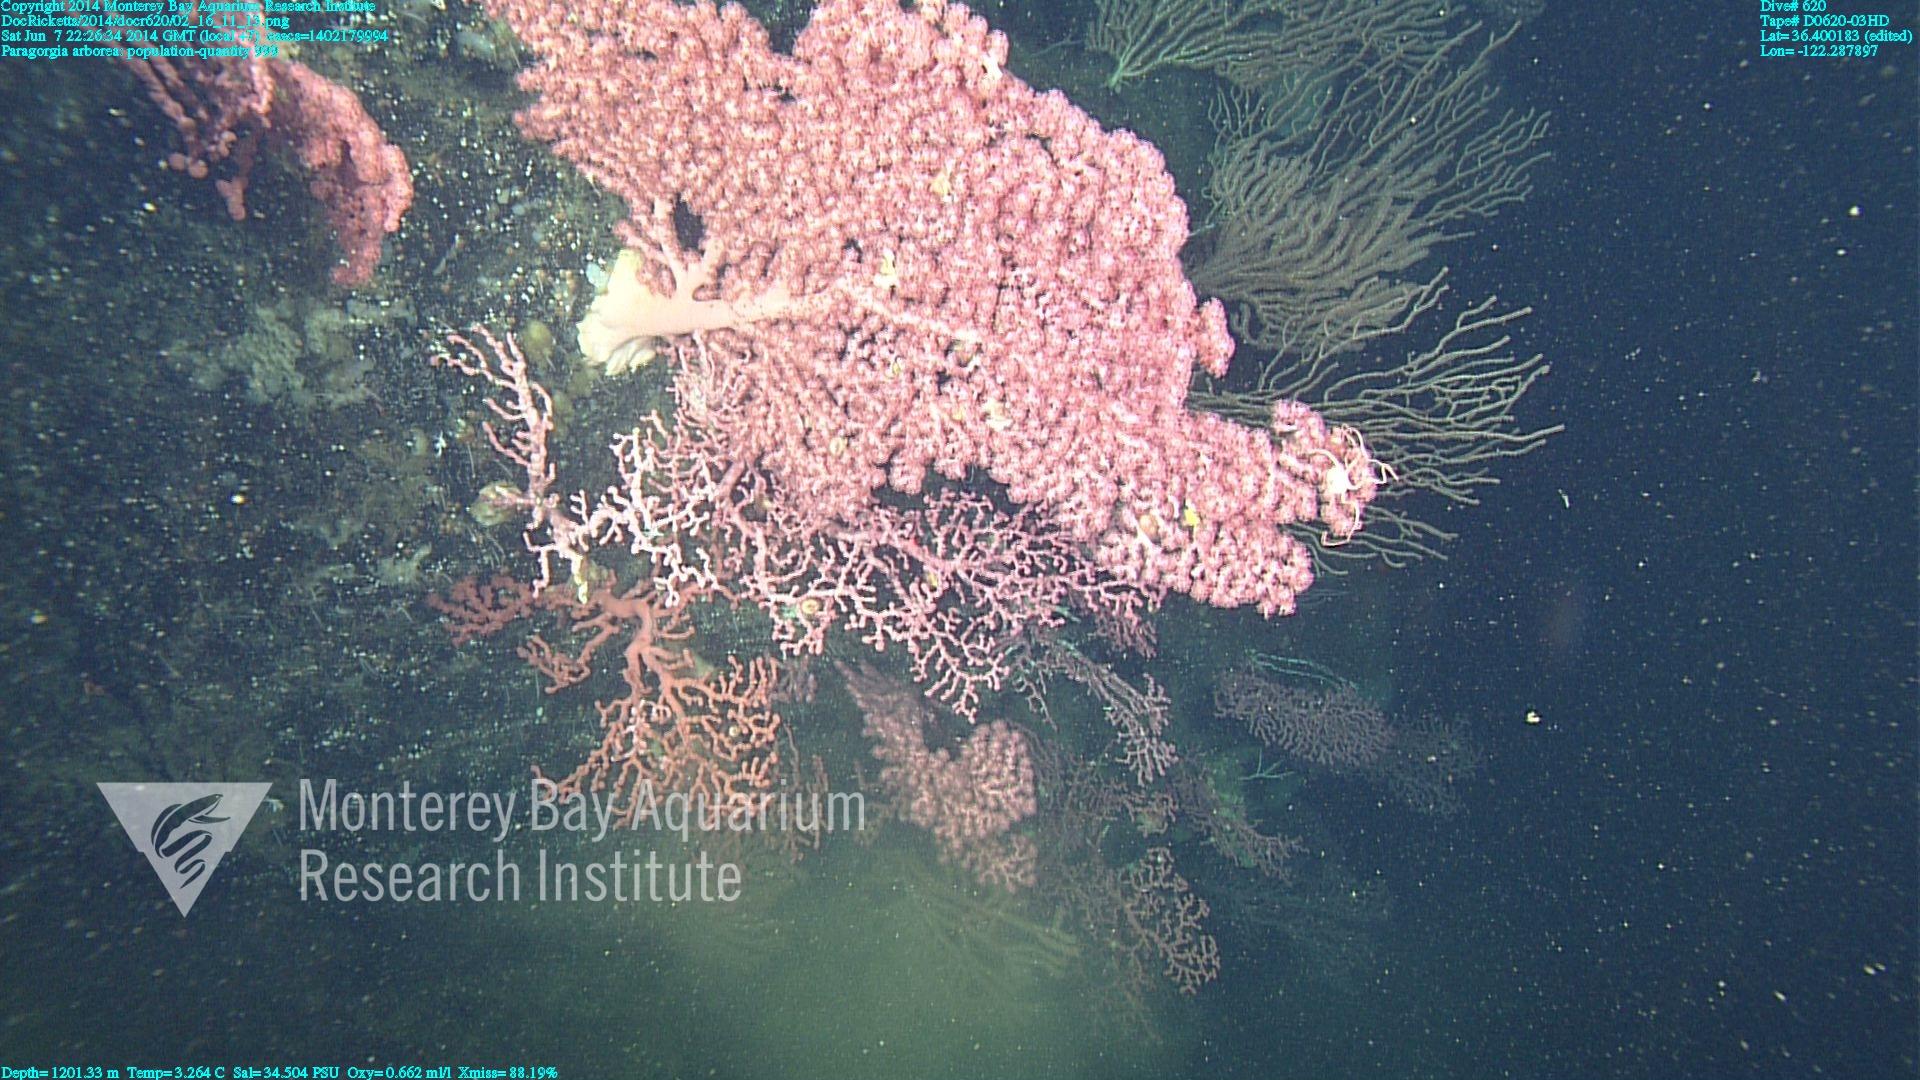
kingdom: Animalia
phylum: Cnidaria
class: Anthozoa
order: Scleralcyonacea
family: Coralliidae
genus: Paragorgia
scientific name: Paragorgia arborea
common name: Bubble gum coral
